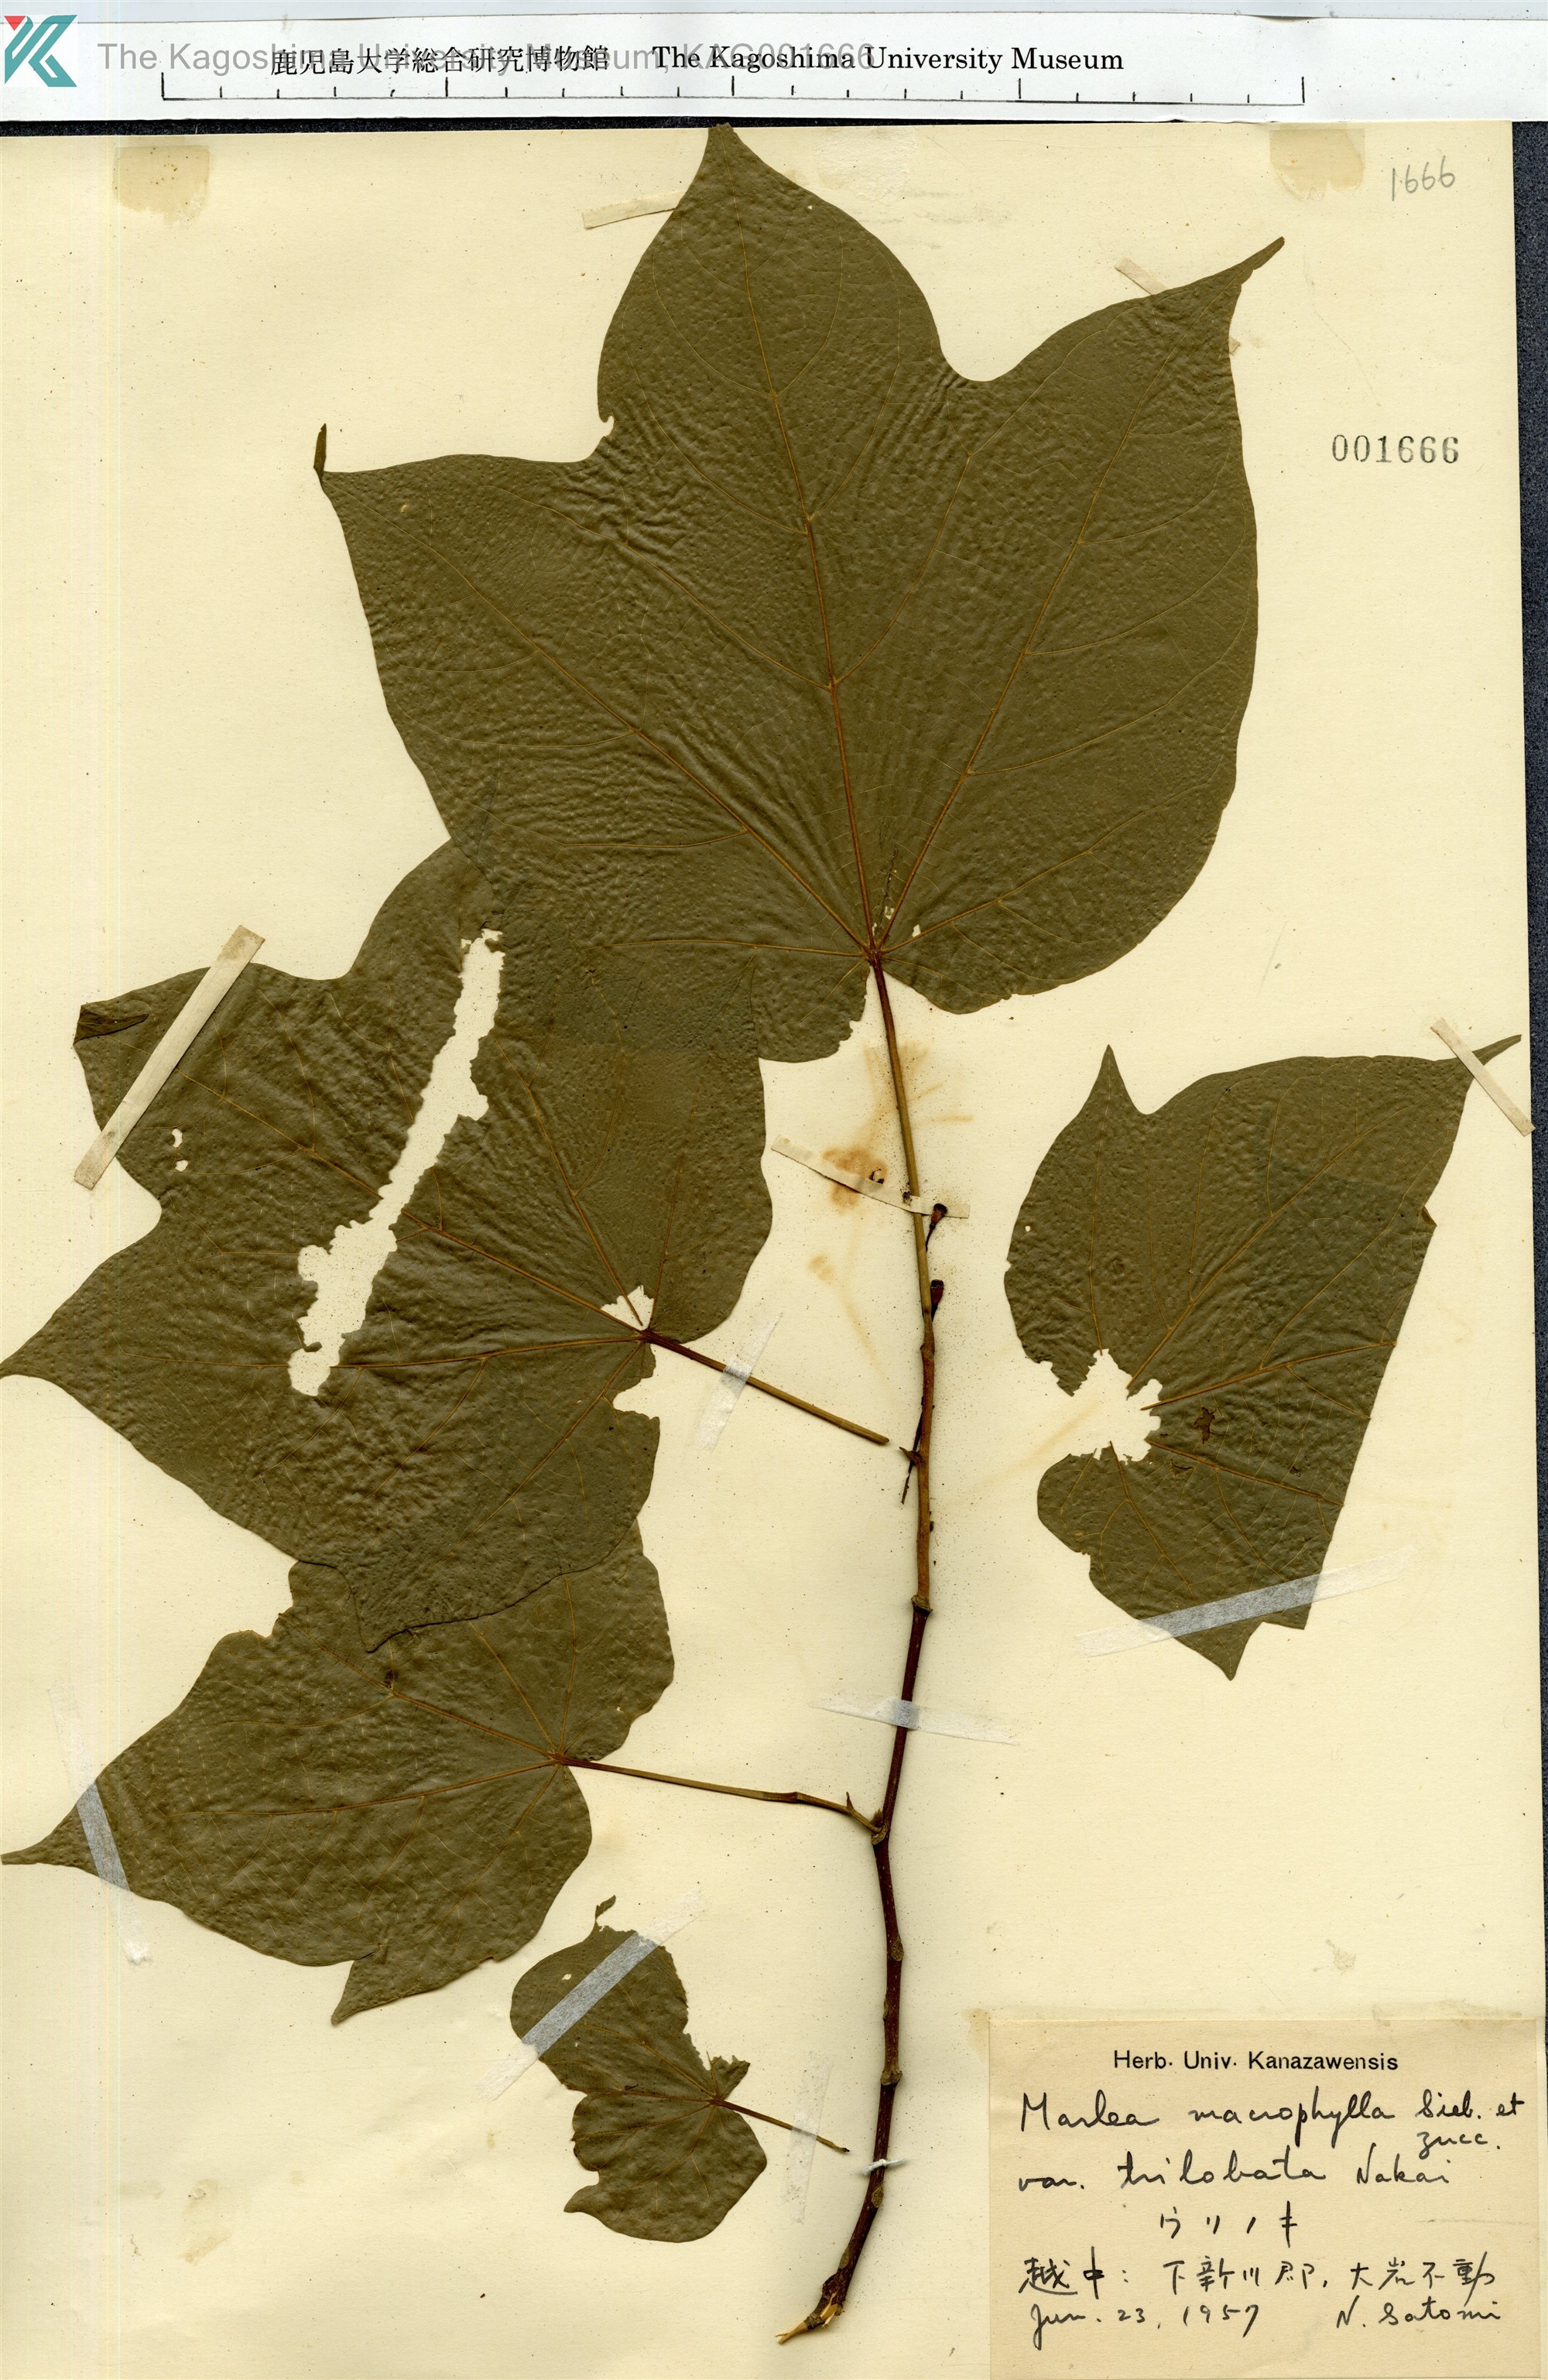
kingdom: Plantae
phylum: Tracheophyta
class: Magnoliopsida
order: Cornales
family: Cornaceae
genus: Alangium
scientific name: Alangium platanifolium
